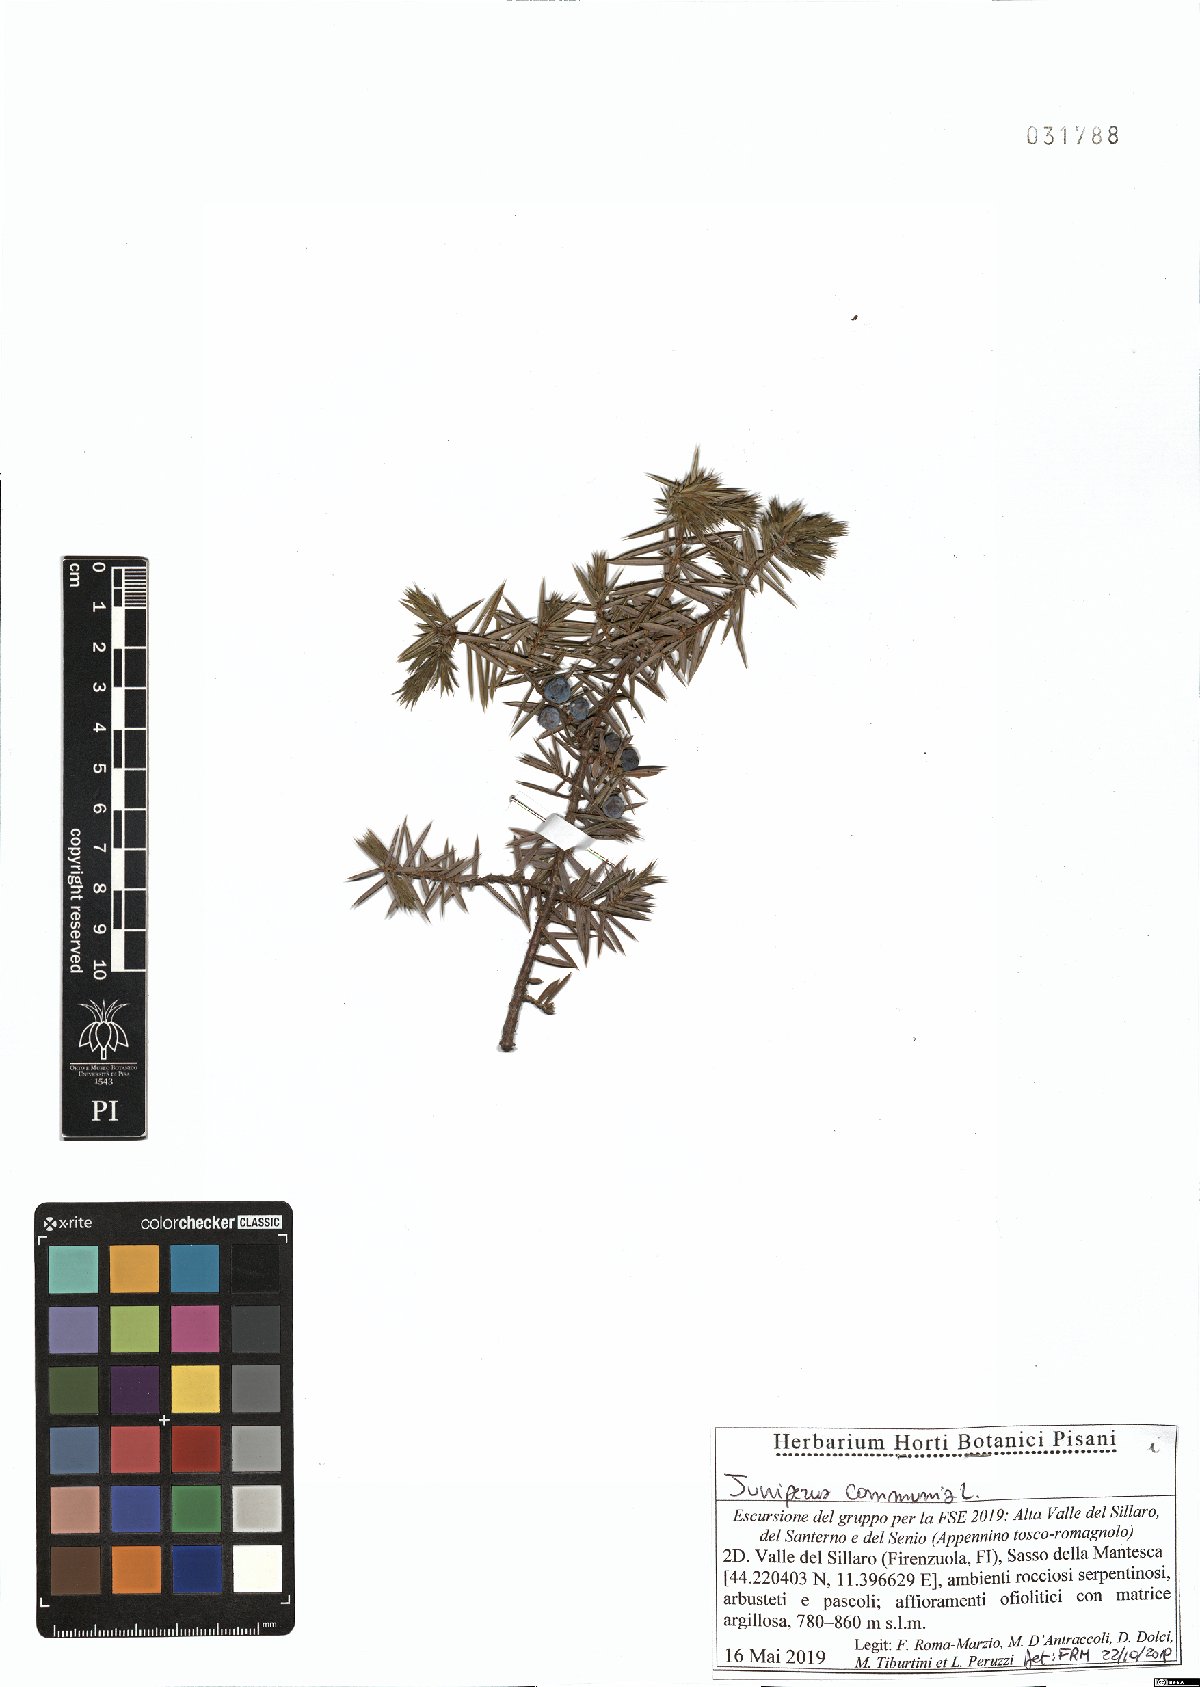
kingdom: Plantae
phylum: Tracheophyta
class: Pinopsida
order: Pinales
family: Cupressaceae
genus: Juniperus
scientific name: Juniperus communis
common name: Common juniper
